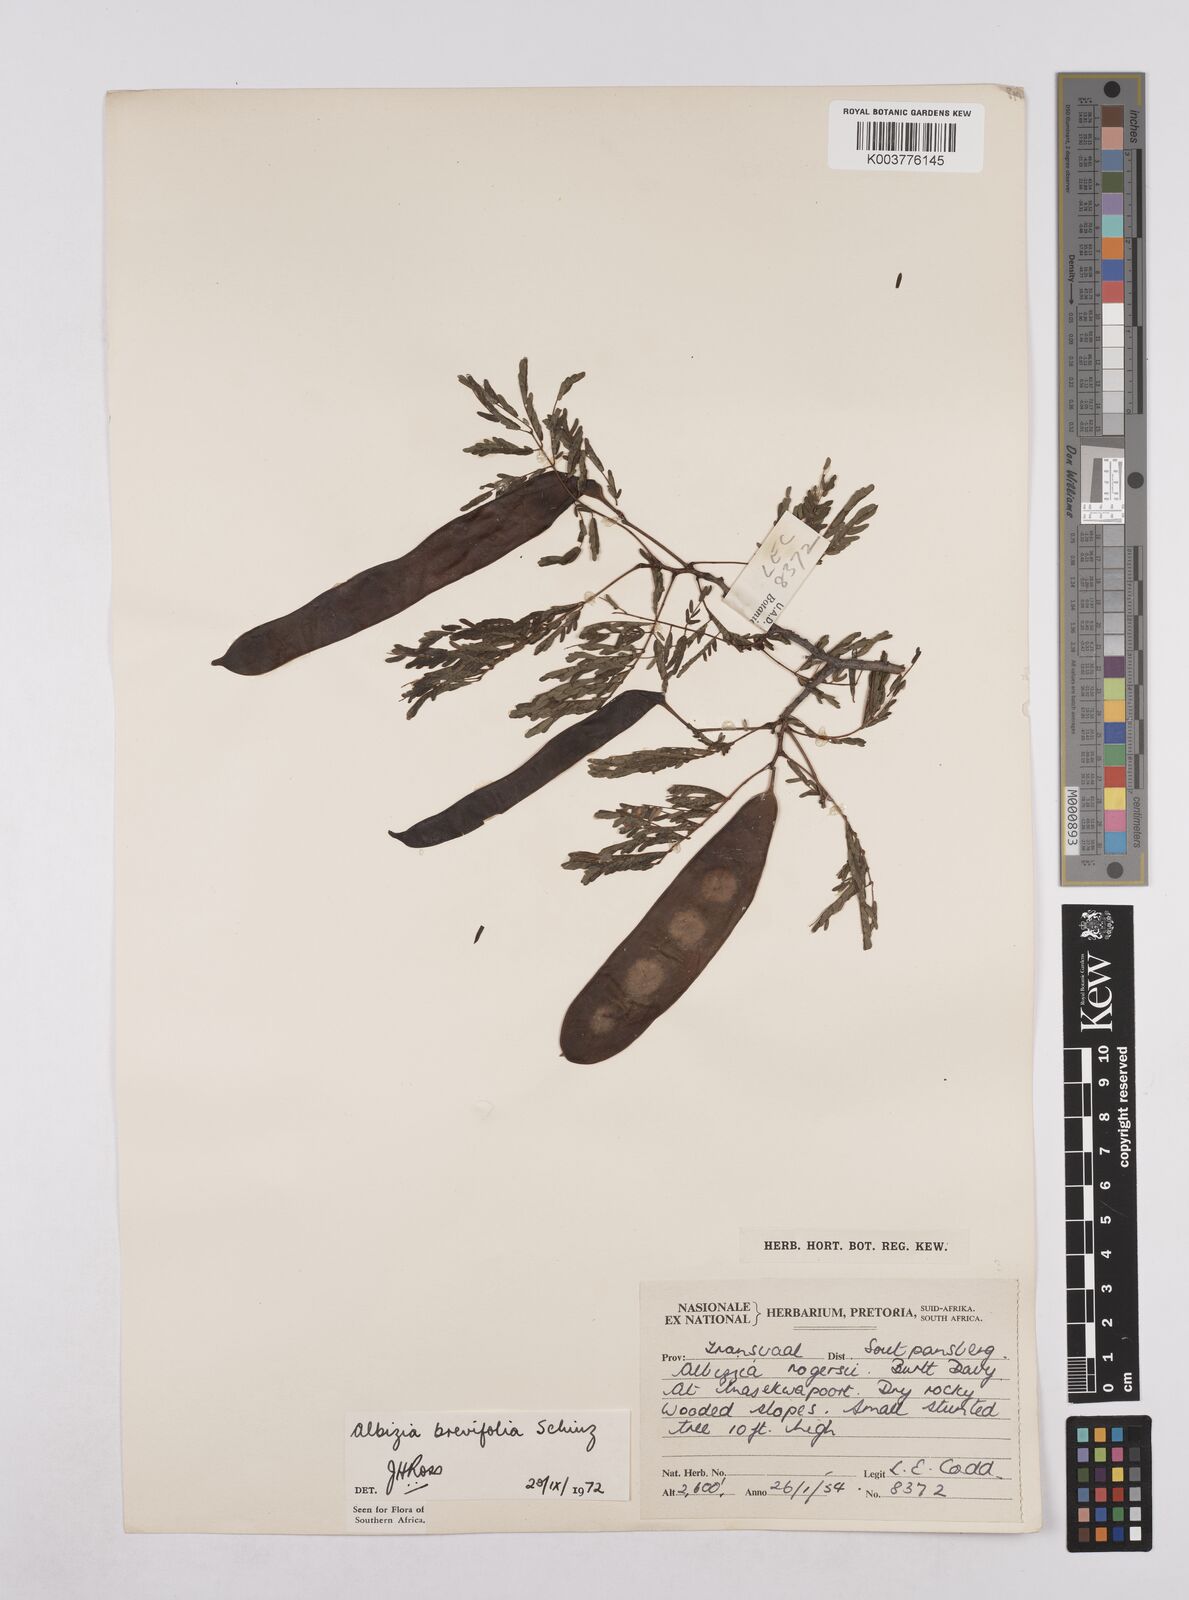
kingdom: Plantae
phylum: Tracheophyta
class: Magnoliopsida
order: Fabales
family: Fabaceae
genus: Albizia
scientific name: Albizia brevifolia
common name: Rock false-thorn
